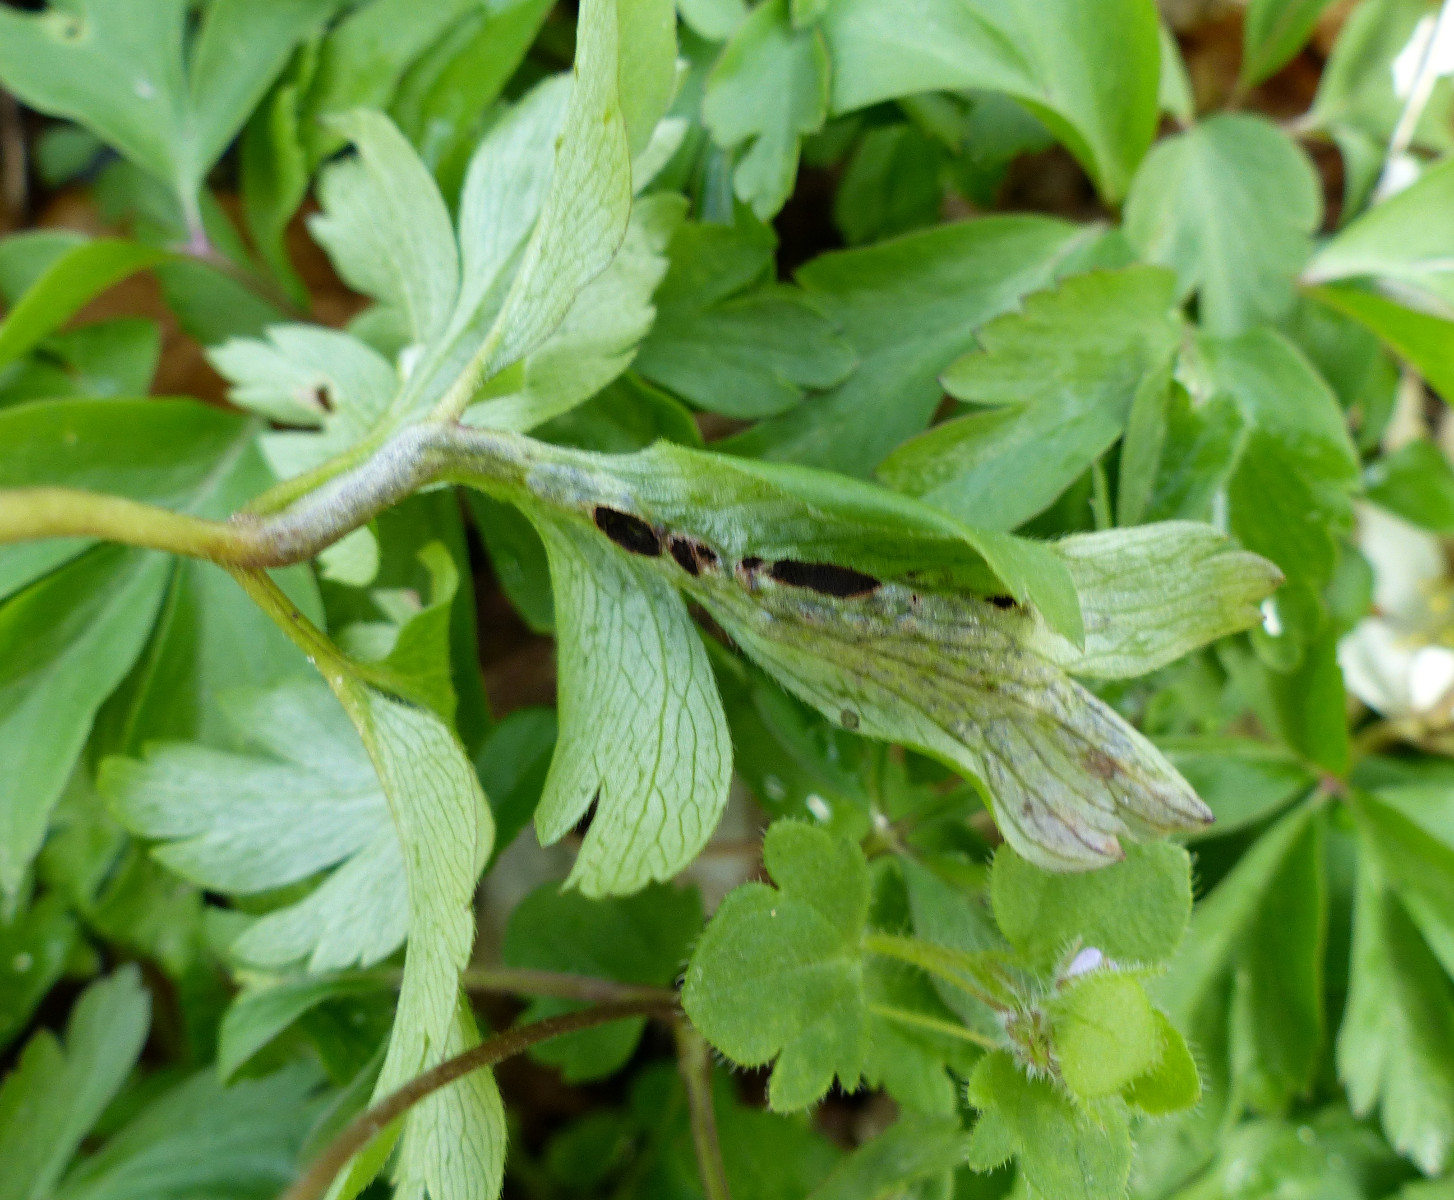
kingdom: Fungi
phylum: Basidiomycota
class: Ustilaginomycetes
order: Urocystidales
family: Urocystidaceae
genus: Urocystis
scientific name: Urocystis anemones
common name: anemone-brand
